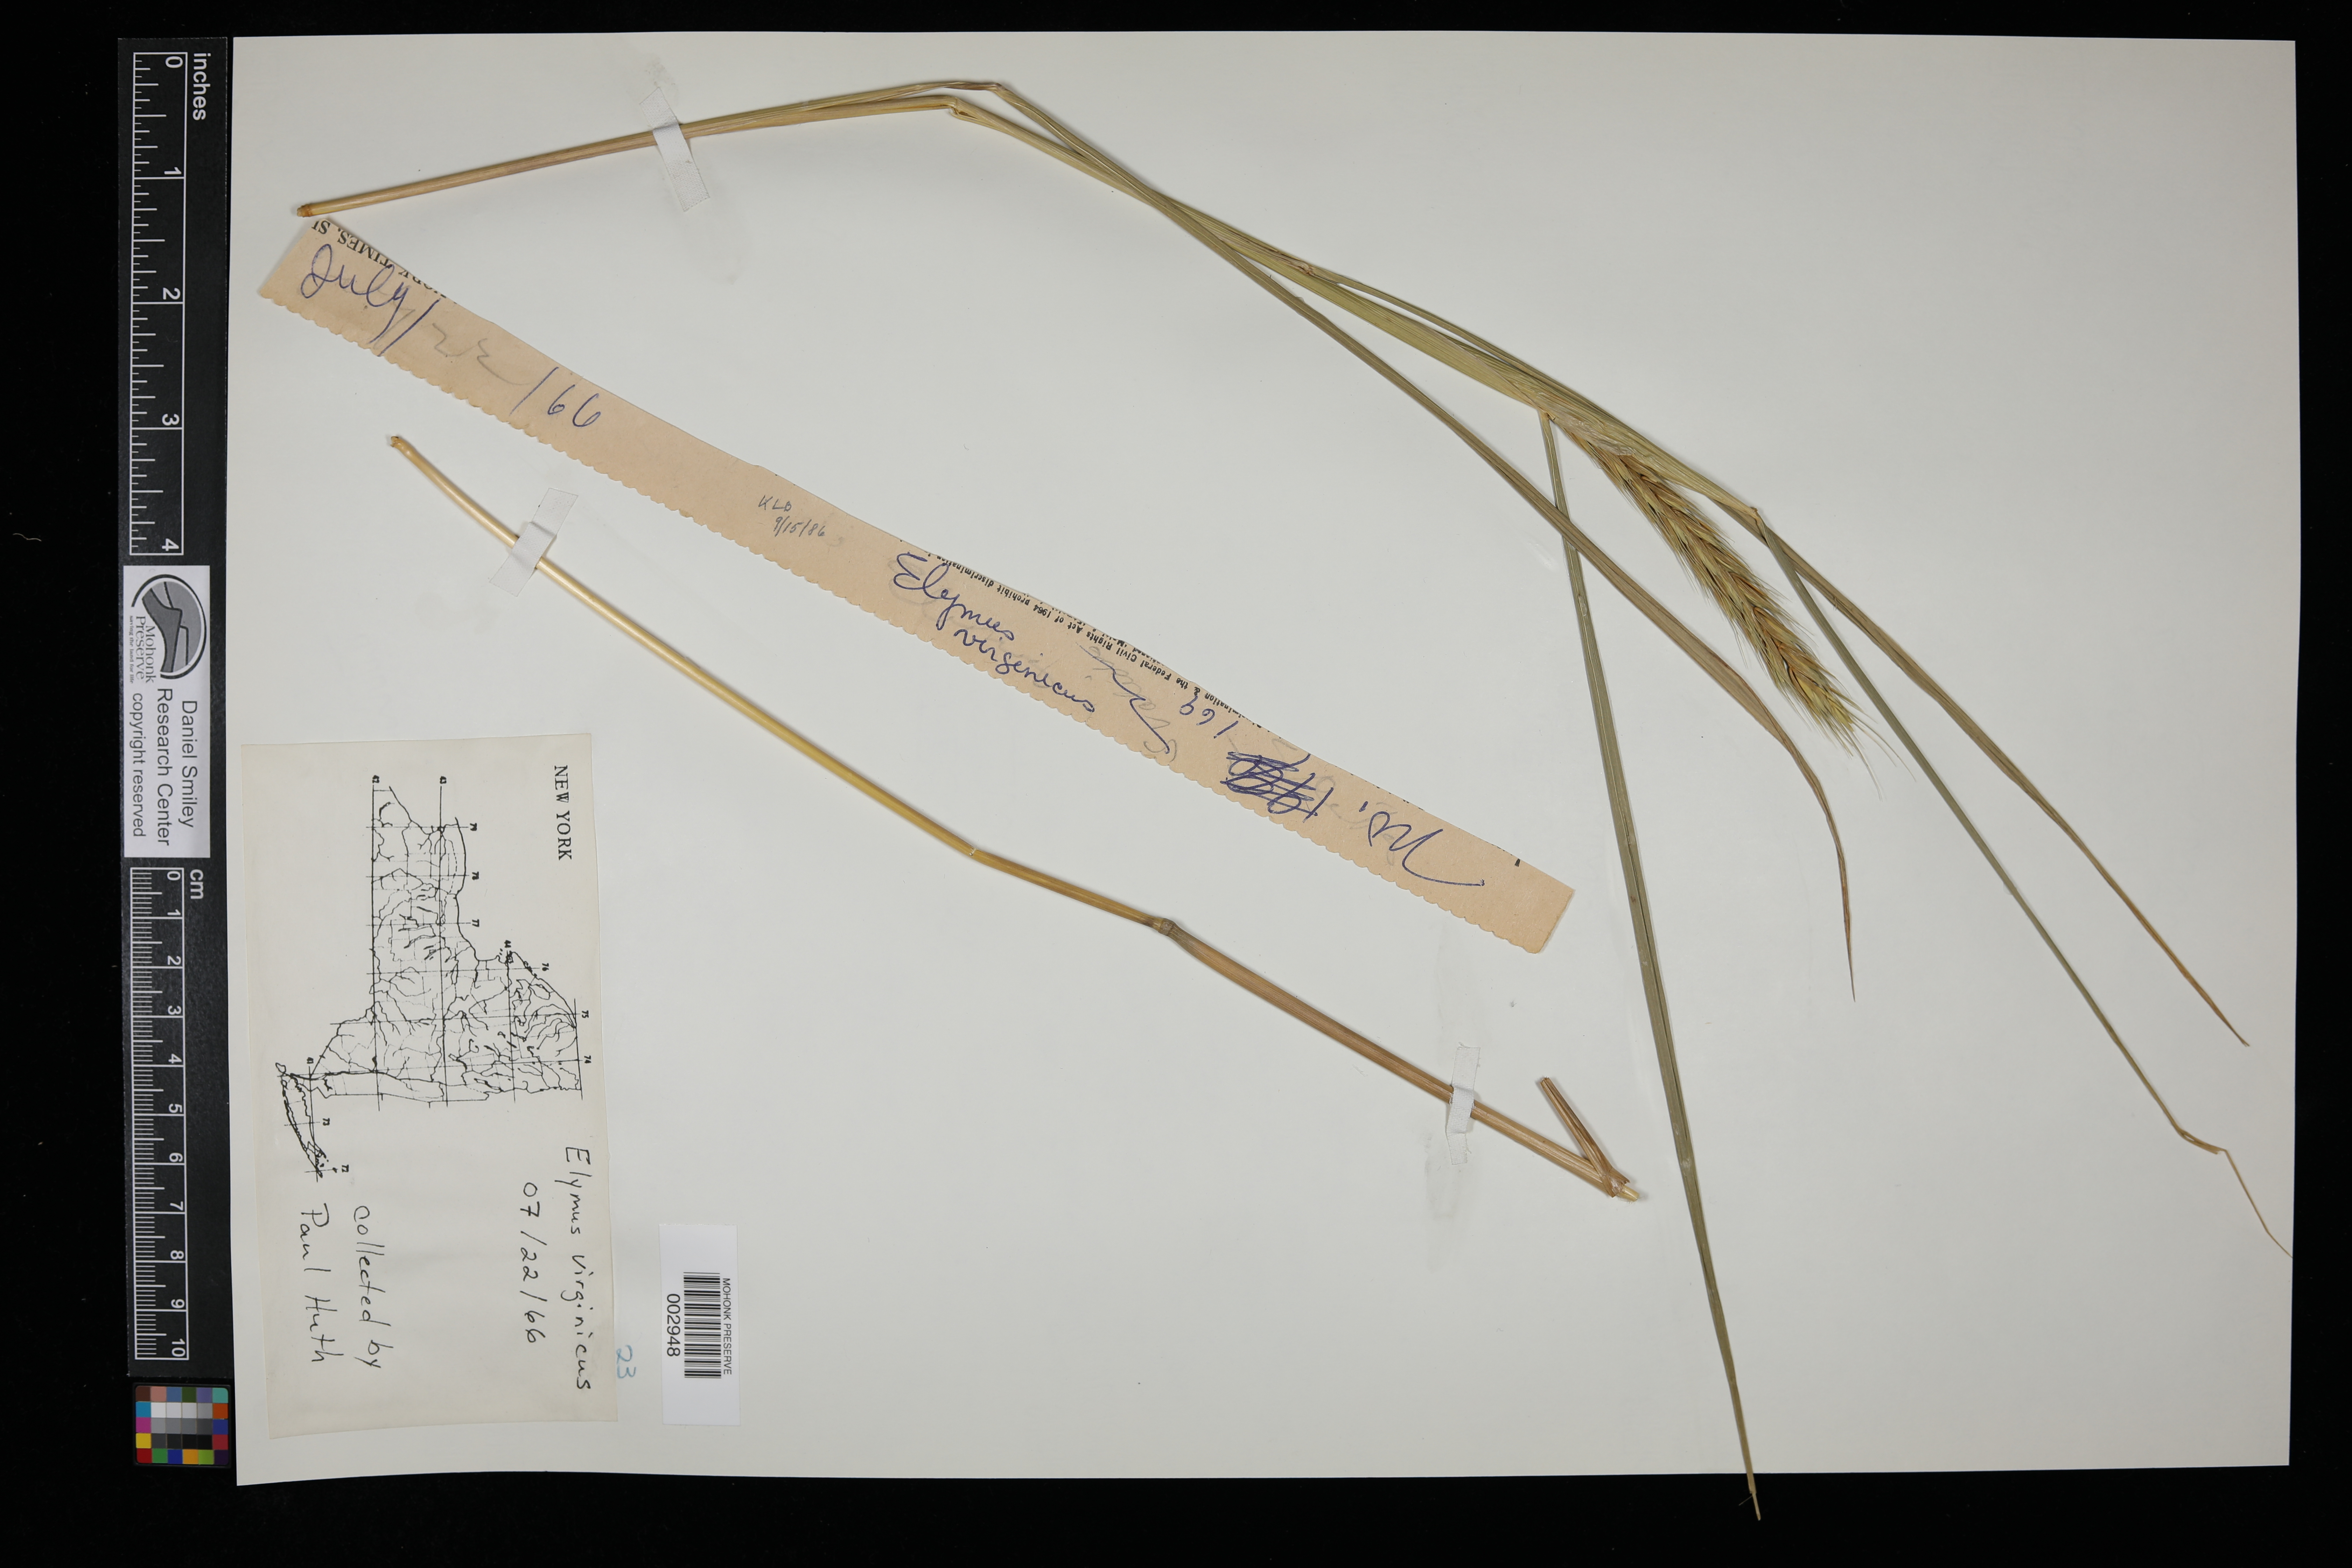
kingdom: Plantae
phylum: Tracheophyta
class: Liliopsida
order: Poales
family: Poaceae
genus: Elymus
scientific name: Elymus virginicus
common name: Common eastern wildrye
